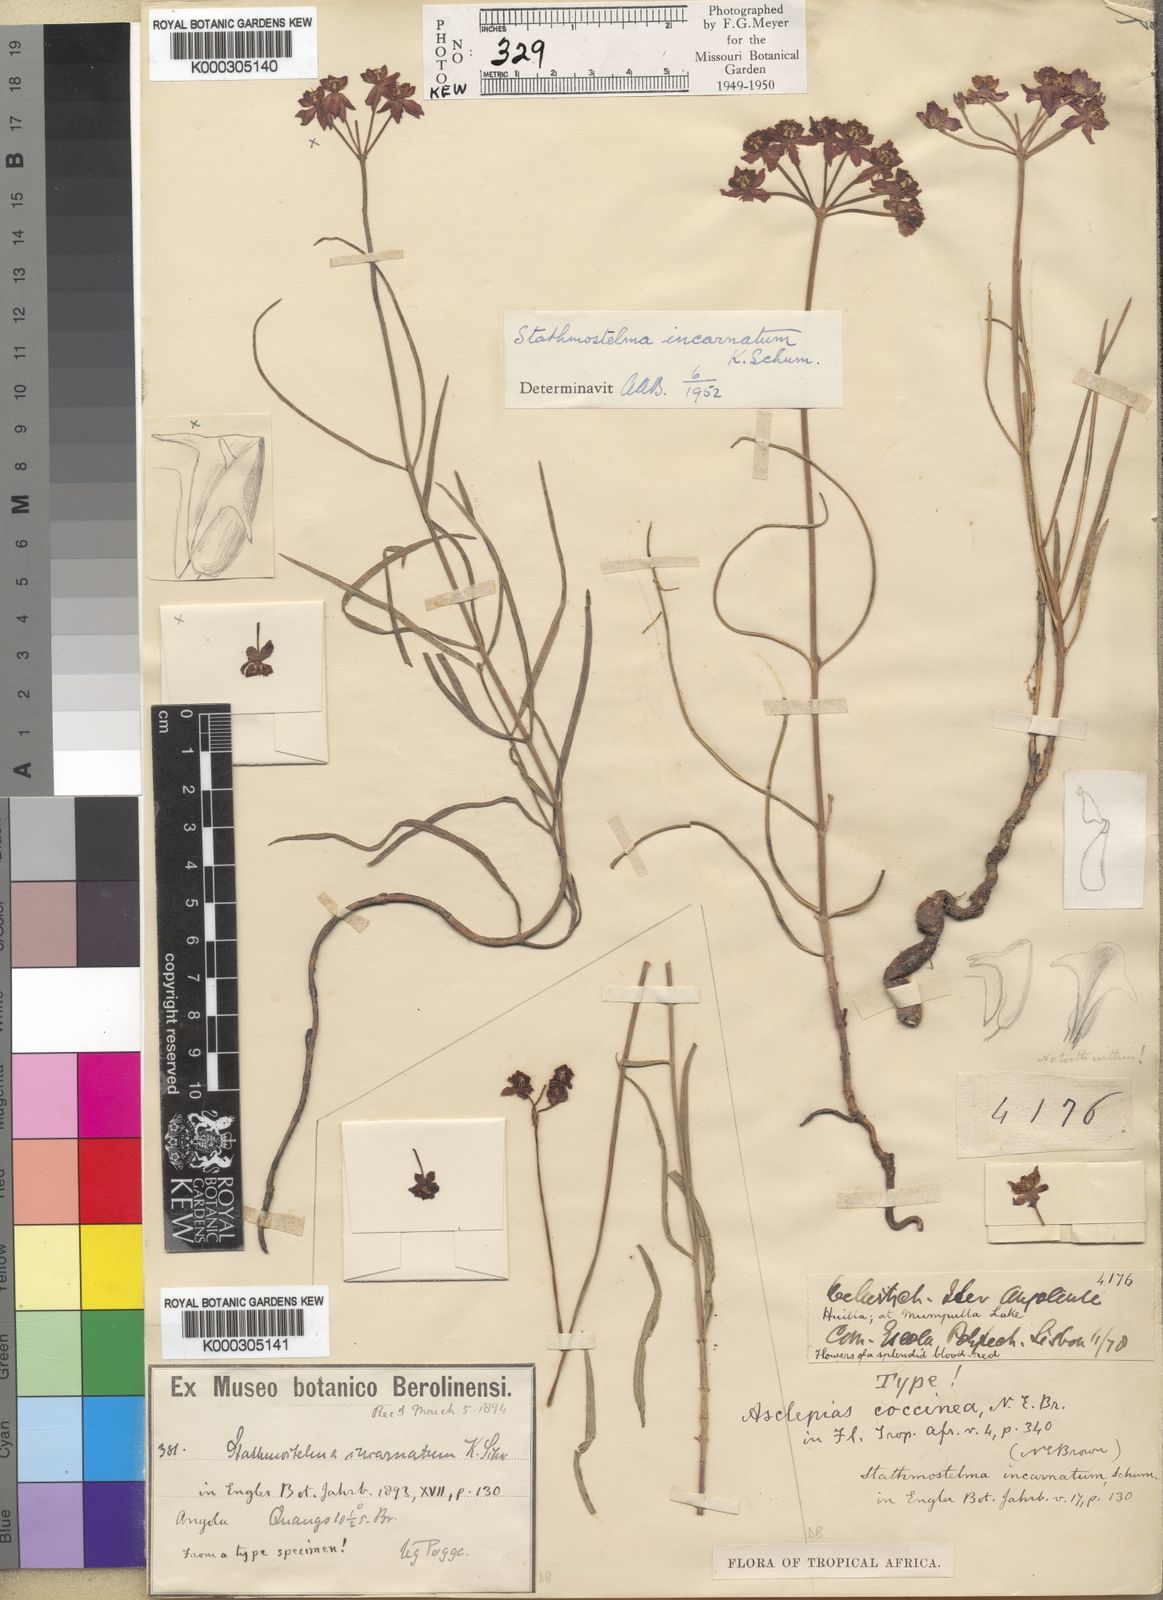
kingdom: Plantae
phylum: Tracheophyta
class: Magnoliopsida
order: Gentianales
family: Apocynaceae
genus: Stathmostelma
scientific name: Stathmostelma incarnatum
